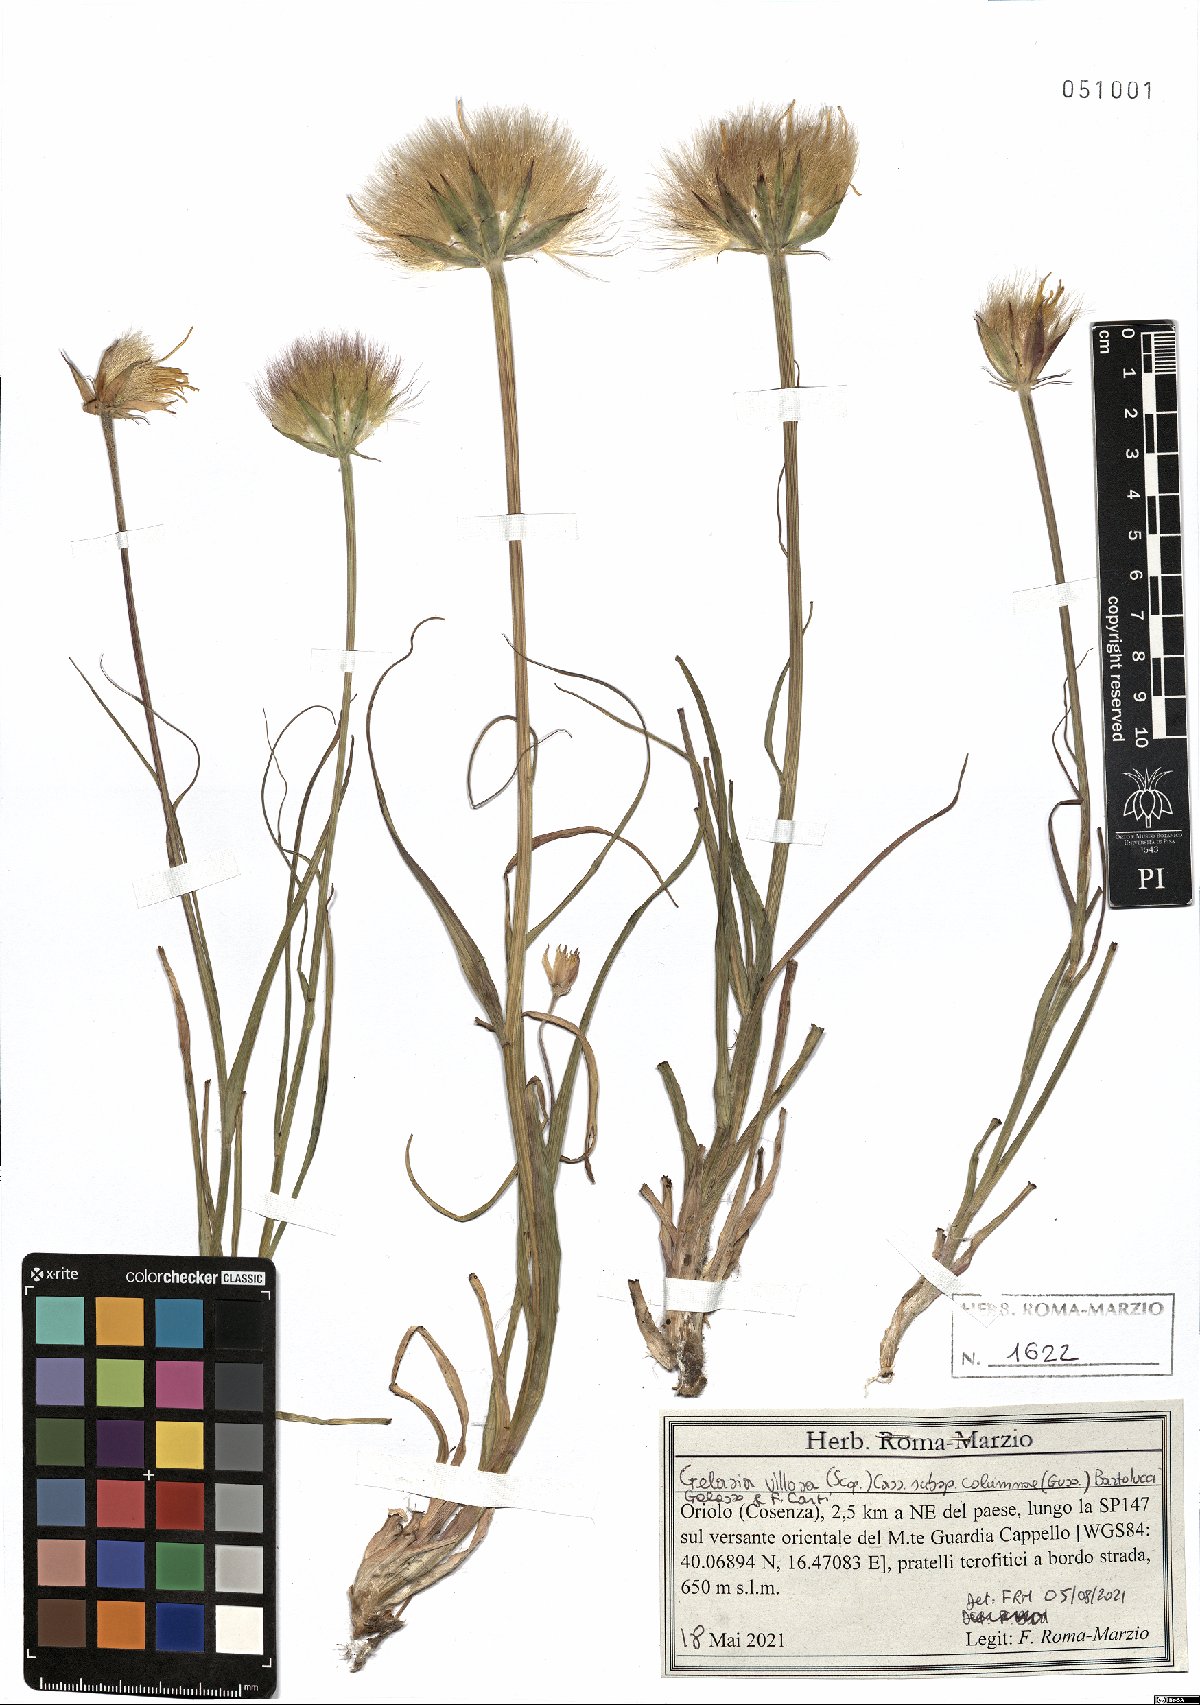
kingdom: Plantae
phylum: Tracheophyta
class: Magnoliopsida
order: Asterales
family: Asteraceae
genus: Gelasia
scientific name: Gelasia villosa
